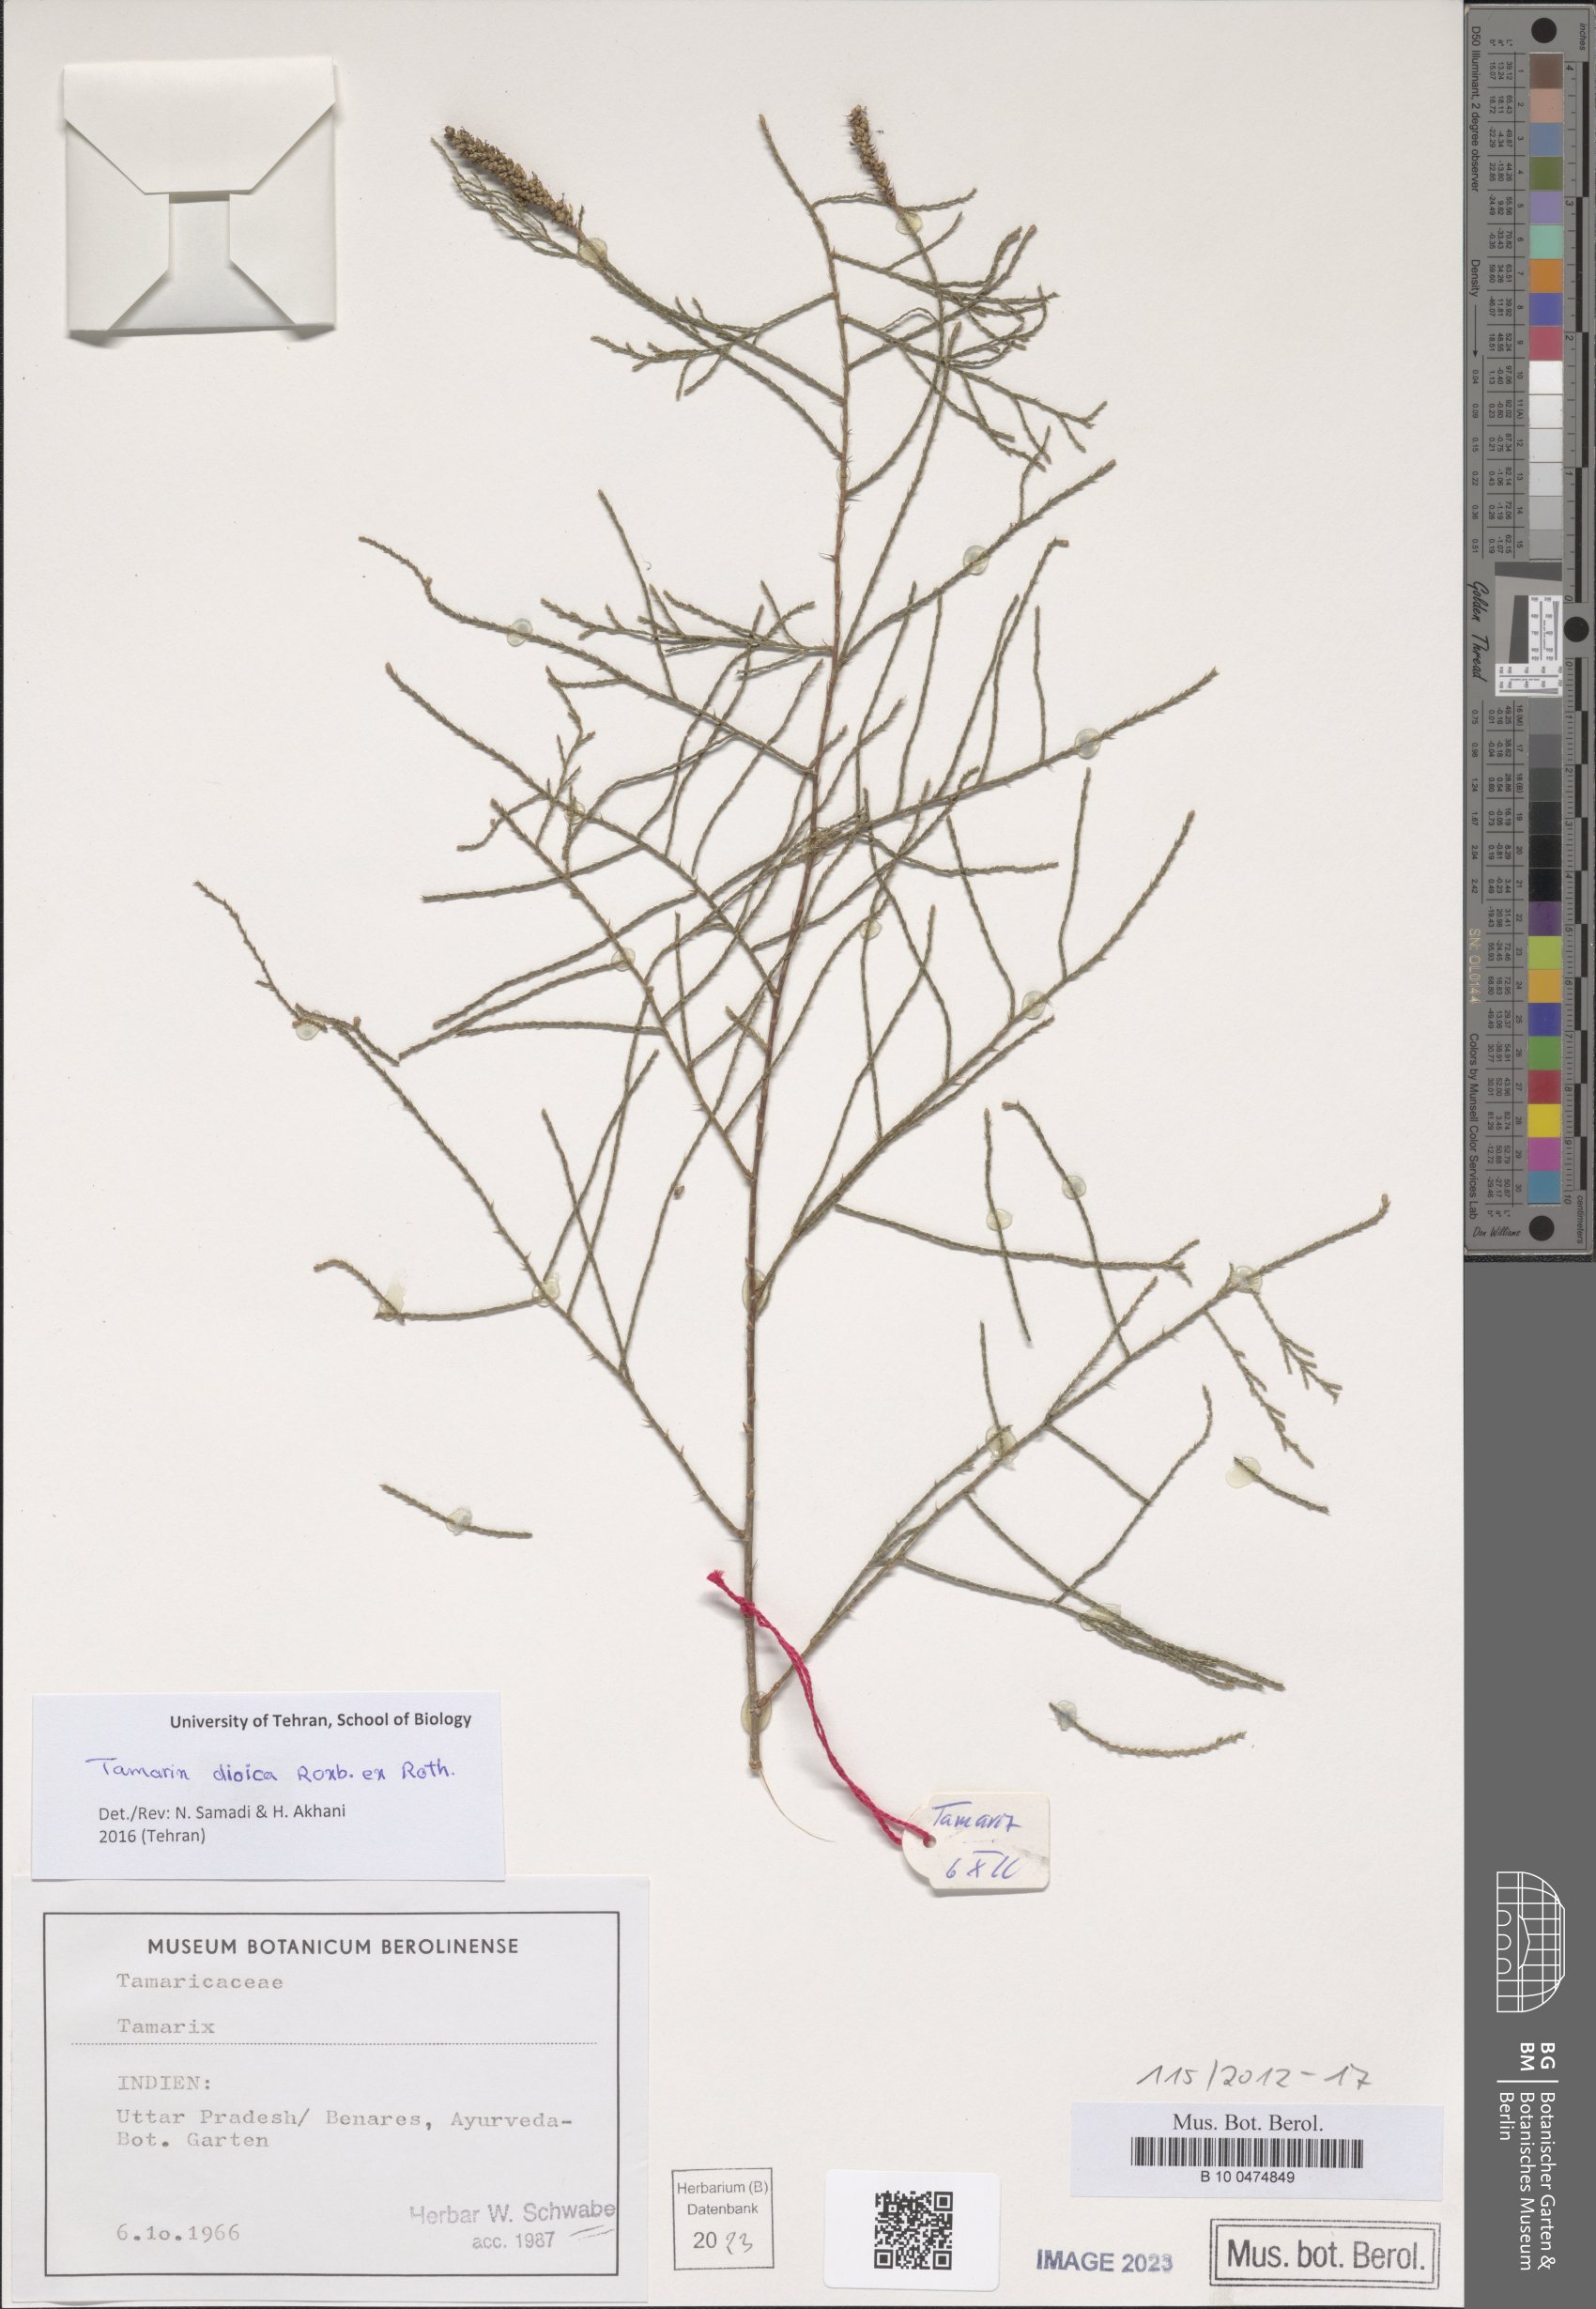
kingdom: Plantae
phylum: Tracheophyta
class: Magnoliopsida
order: Caryophyllales
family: Tamaricaceae
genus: Tamarix
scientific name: Tamarix dioica
